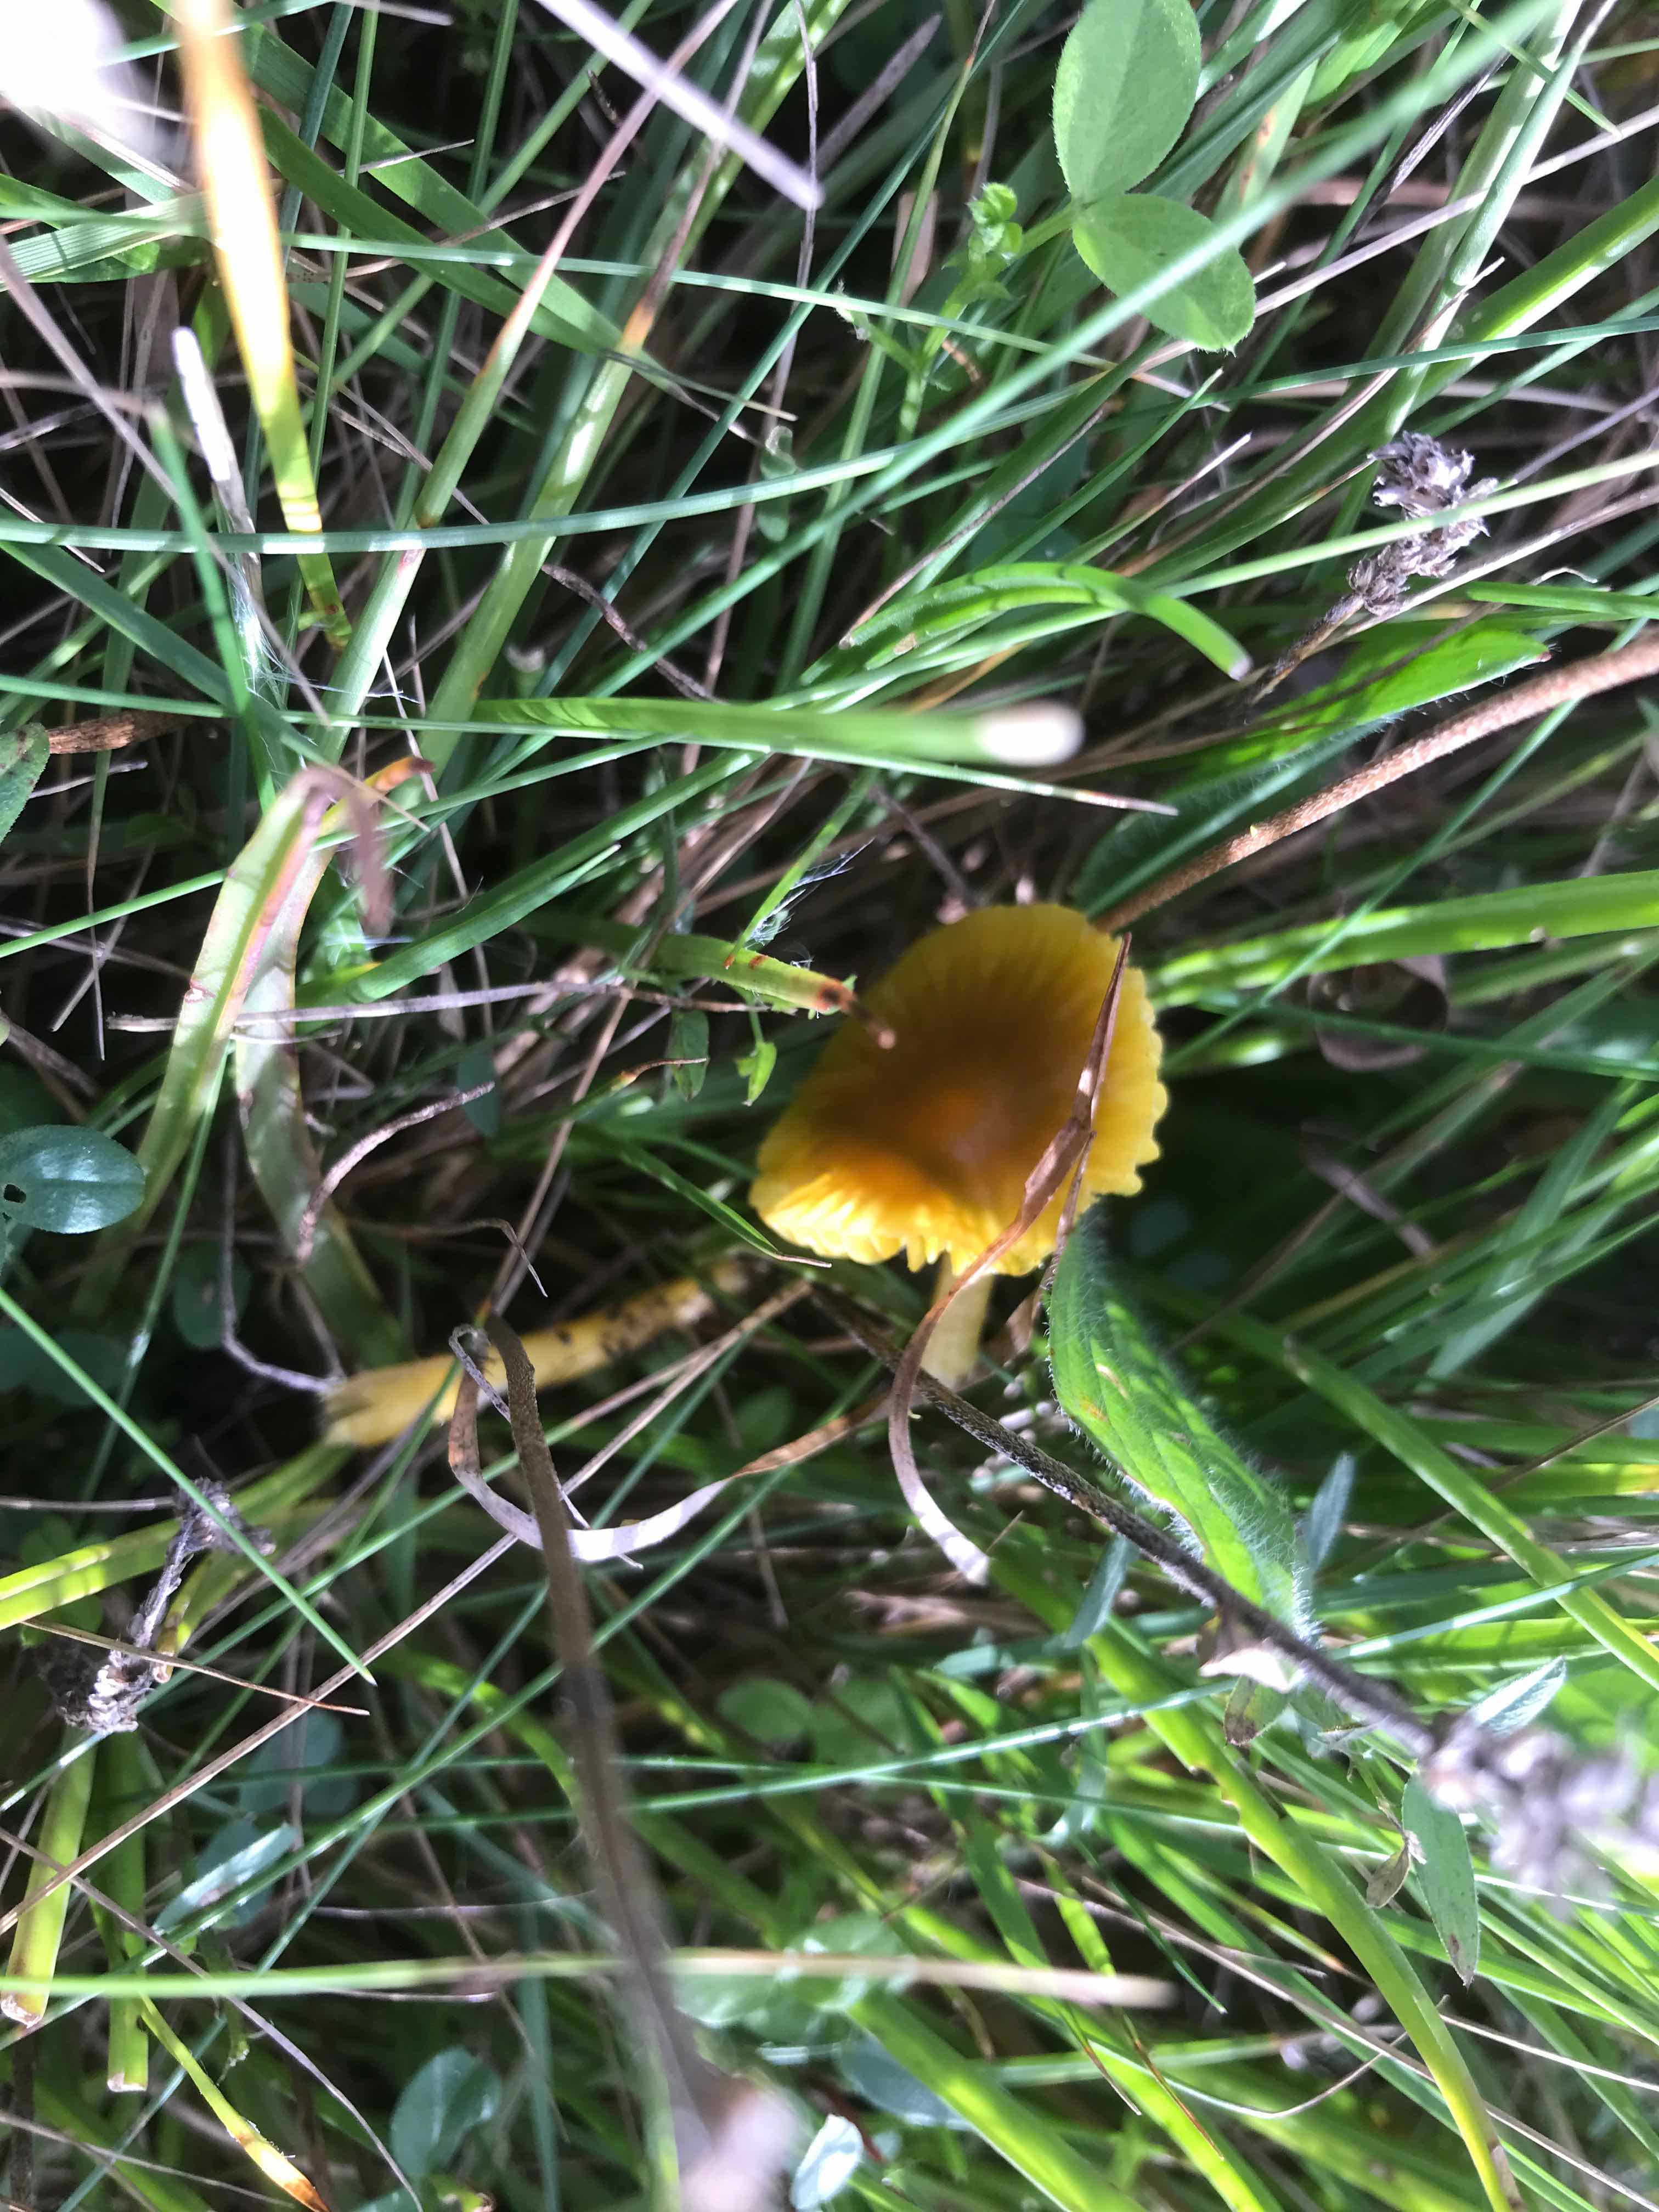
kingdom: Fungi
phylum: Basidiomycota
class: Agaricomycetes
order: Agaricales
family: Hygrophoraceae
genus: Gliophorus
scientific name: Gliophorus psittacinus
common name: papegøje-vokshat
